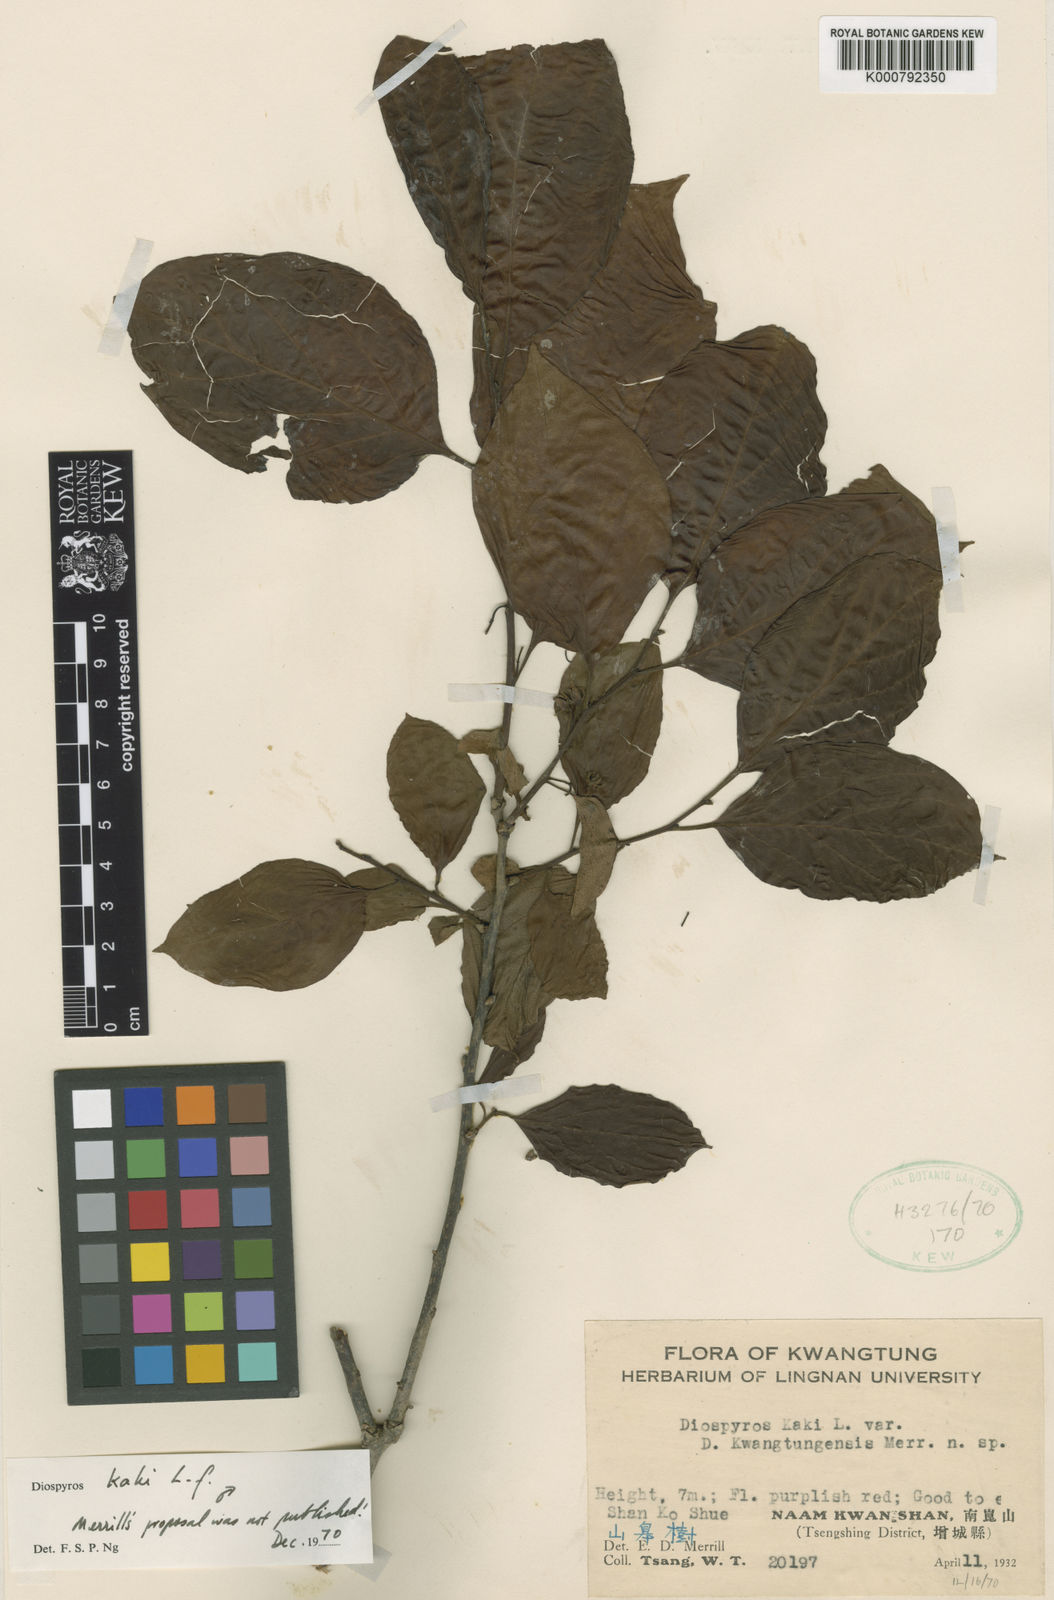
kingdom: Plantae
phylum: Tracheophyta
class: Magnoliopsida
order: Ericales
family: Ebenaceae
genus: Diospyros
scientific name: Diospyros kaki
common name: Persimmon
